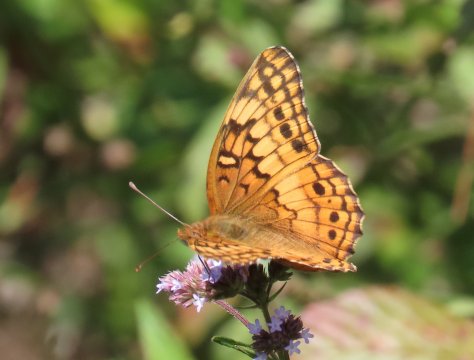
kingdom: Animalia
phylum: Arthropoda
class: Insecta
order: Lepidoptera
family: Nymphalidae
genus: Euptoieta
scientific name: Euptoieta claudia
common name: Variegated Fritillary
